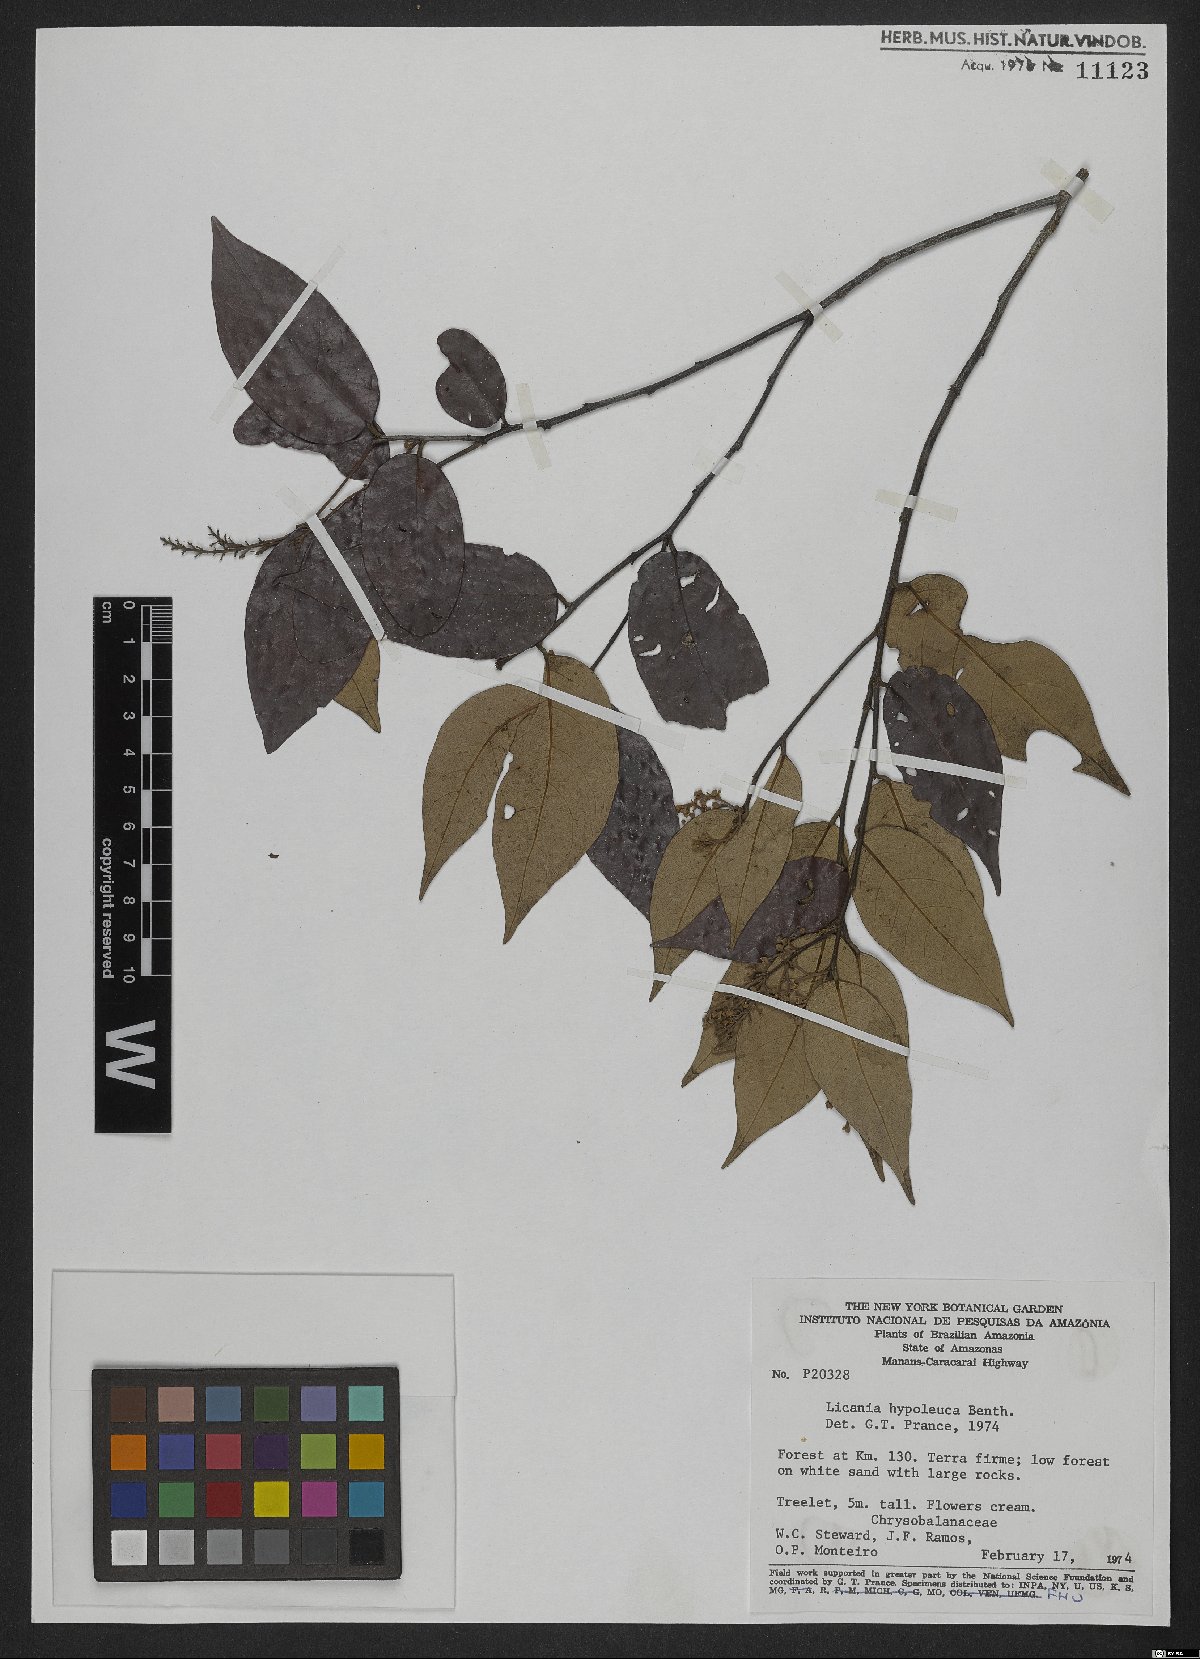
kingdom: Plantae
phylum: Tracheophyta
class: Magnoliopsida
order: Malpighiales
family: Chrysobalanaceae
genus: Licania
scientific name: Licania hypoleuca
